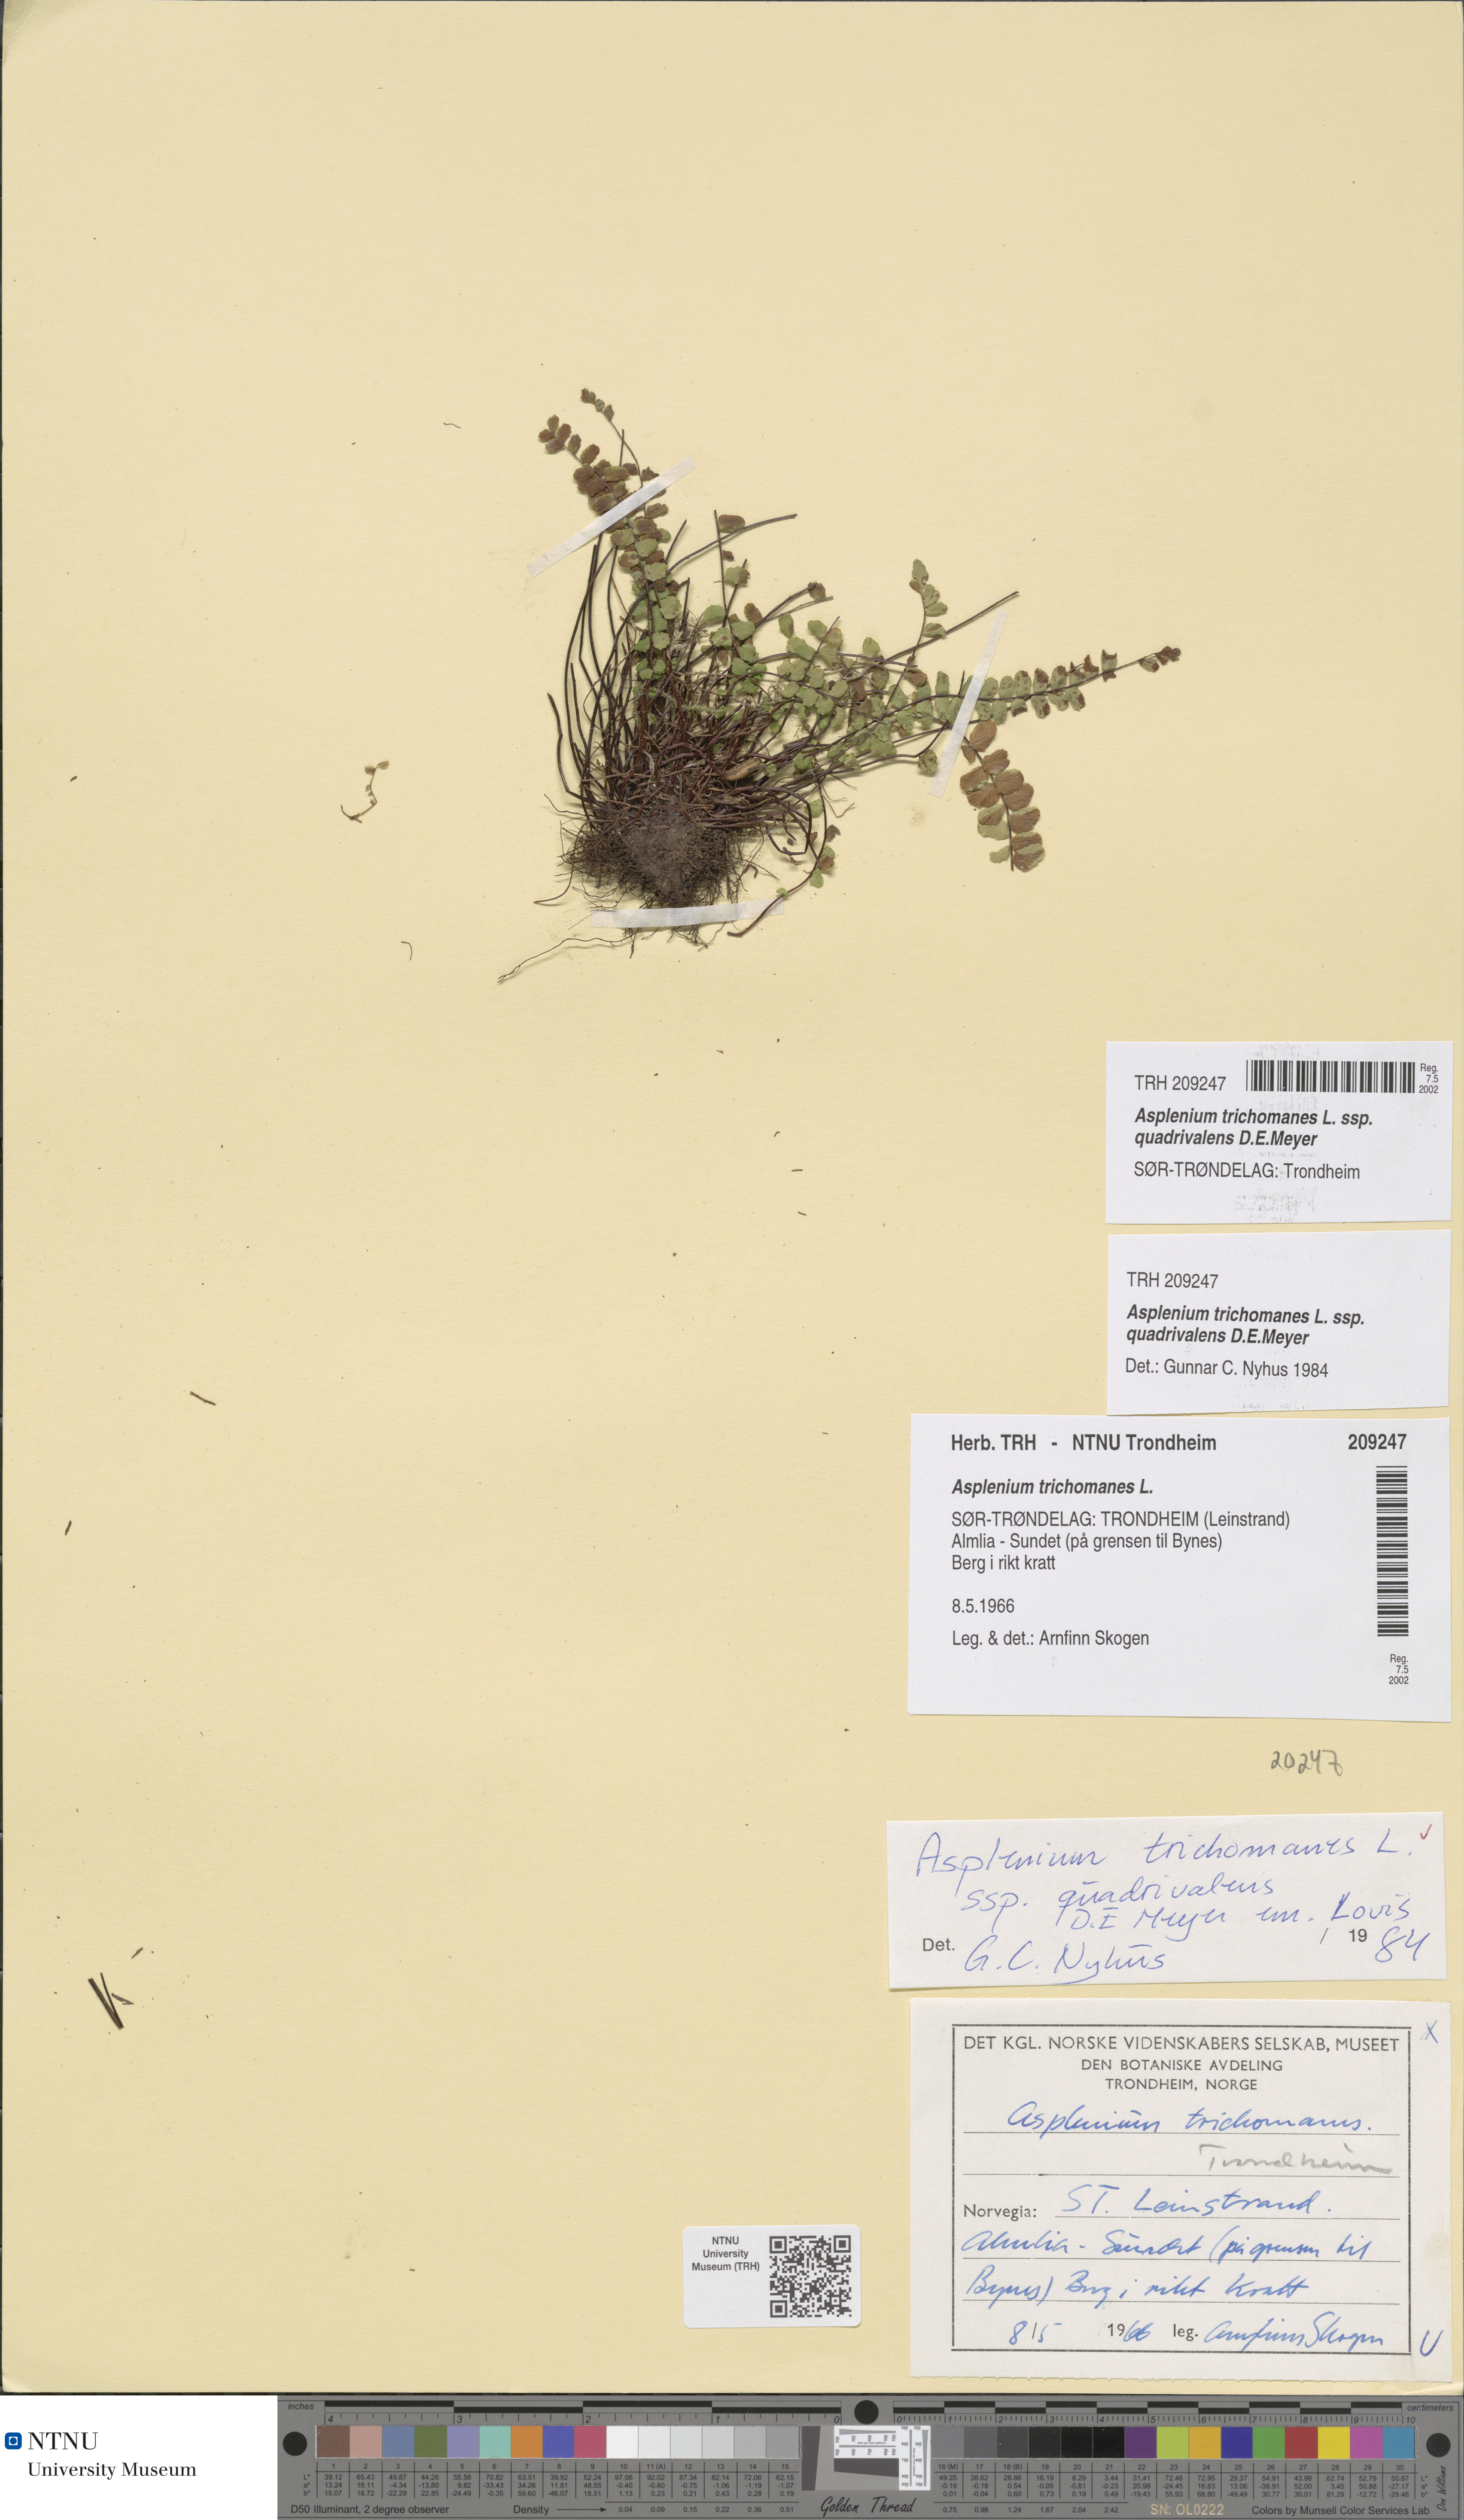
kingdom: Plantae
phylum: Tracheophyta
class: Polypodiopsida
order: Polypodiales
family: Aspleniaceae
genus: Asplenium
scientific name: Asplenium quadrivalens
